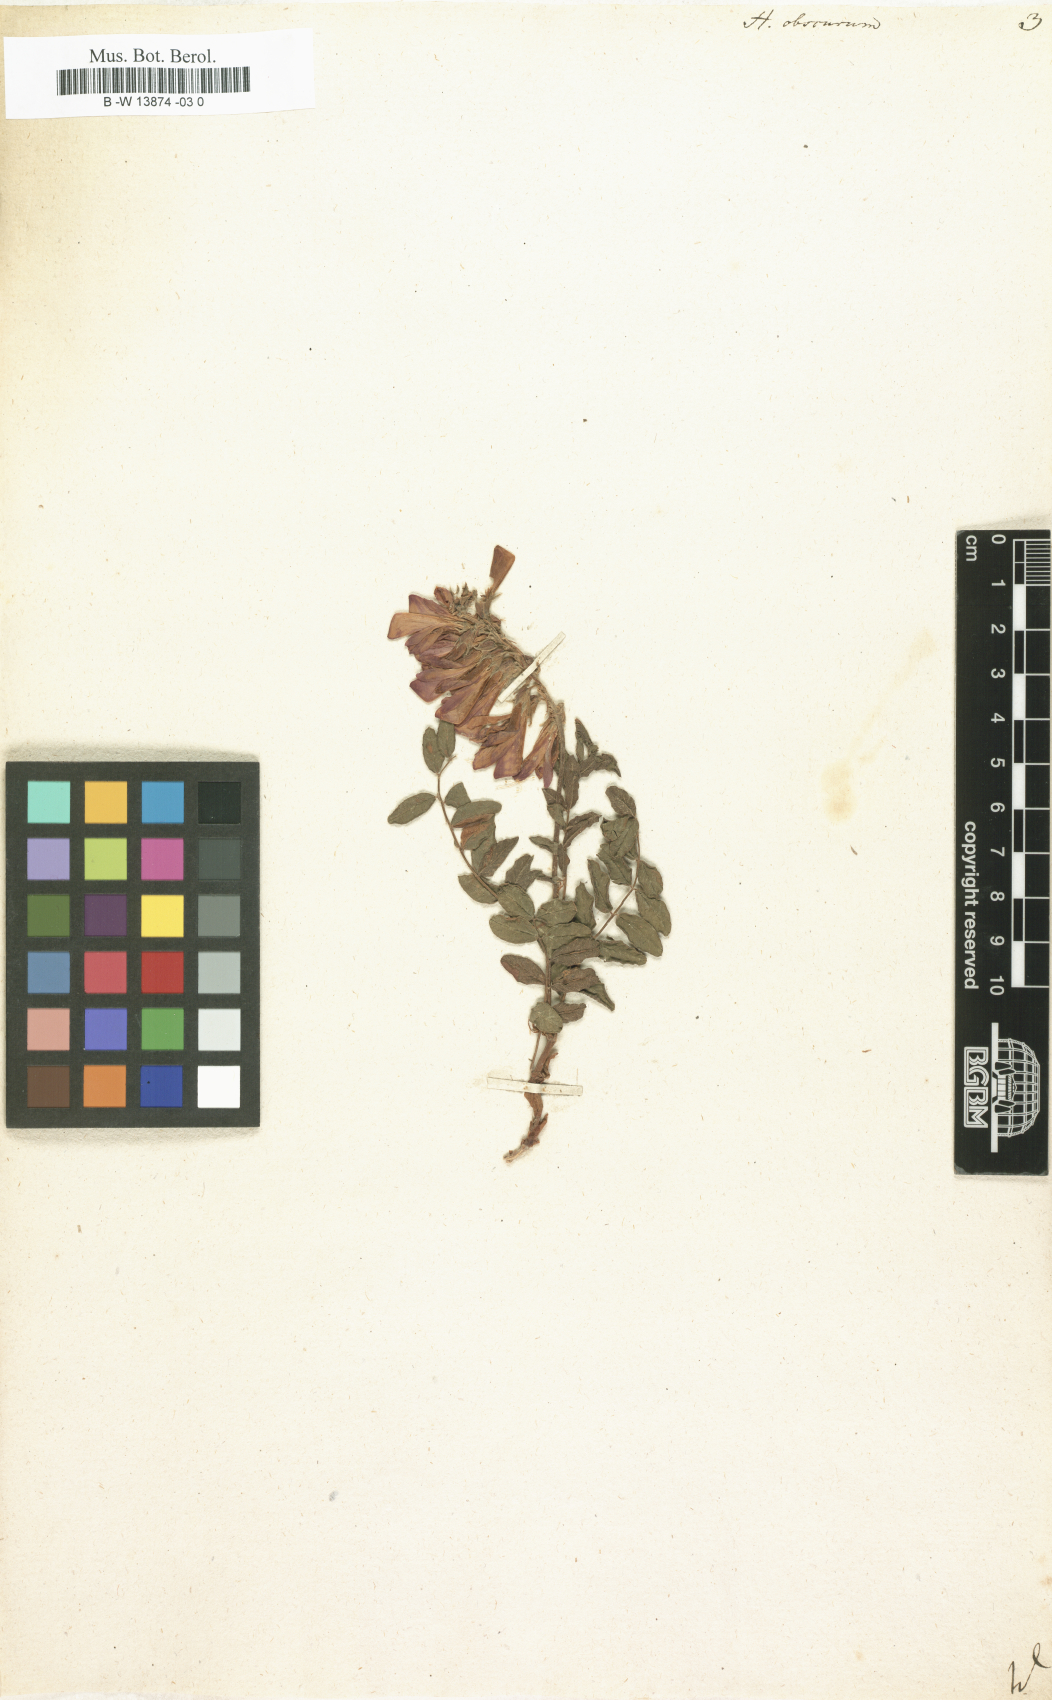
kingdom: Plantae
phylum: Tracheophyta
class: Magnoliopsida
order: Fabales
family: Fabaceae
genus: Hedysarum
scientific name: Hedysarum hedysaroides
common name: Alpine french-honeysuckle
